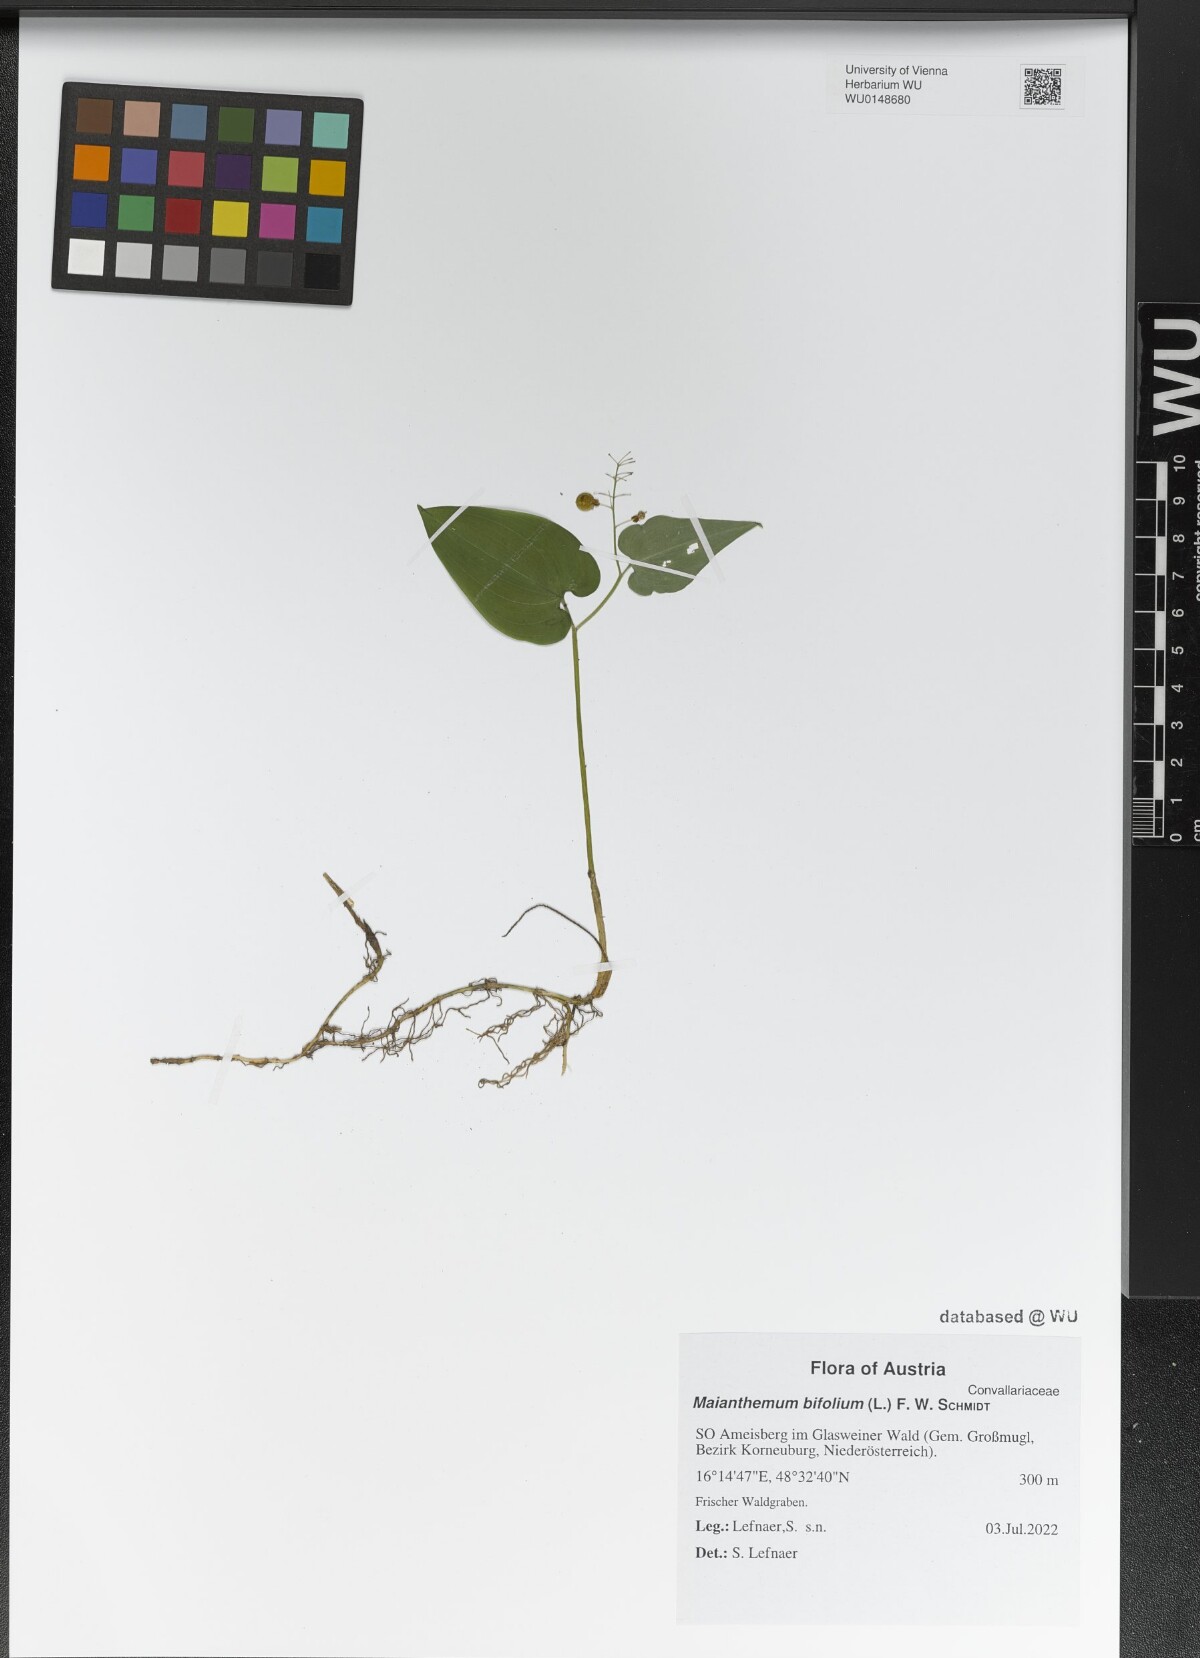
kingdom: Plantae
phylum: Tracheophyta
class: Liliopsida
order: Asparagales
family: Asparagaceae
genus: Maianthemum
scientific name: Maianthemum bifolium
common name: May lily
